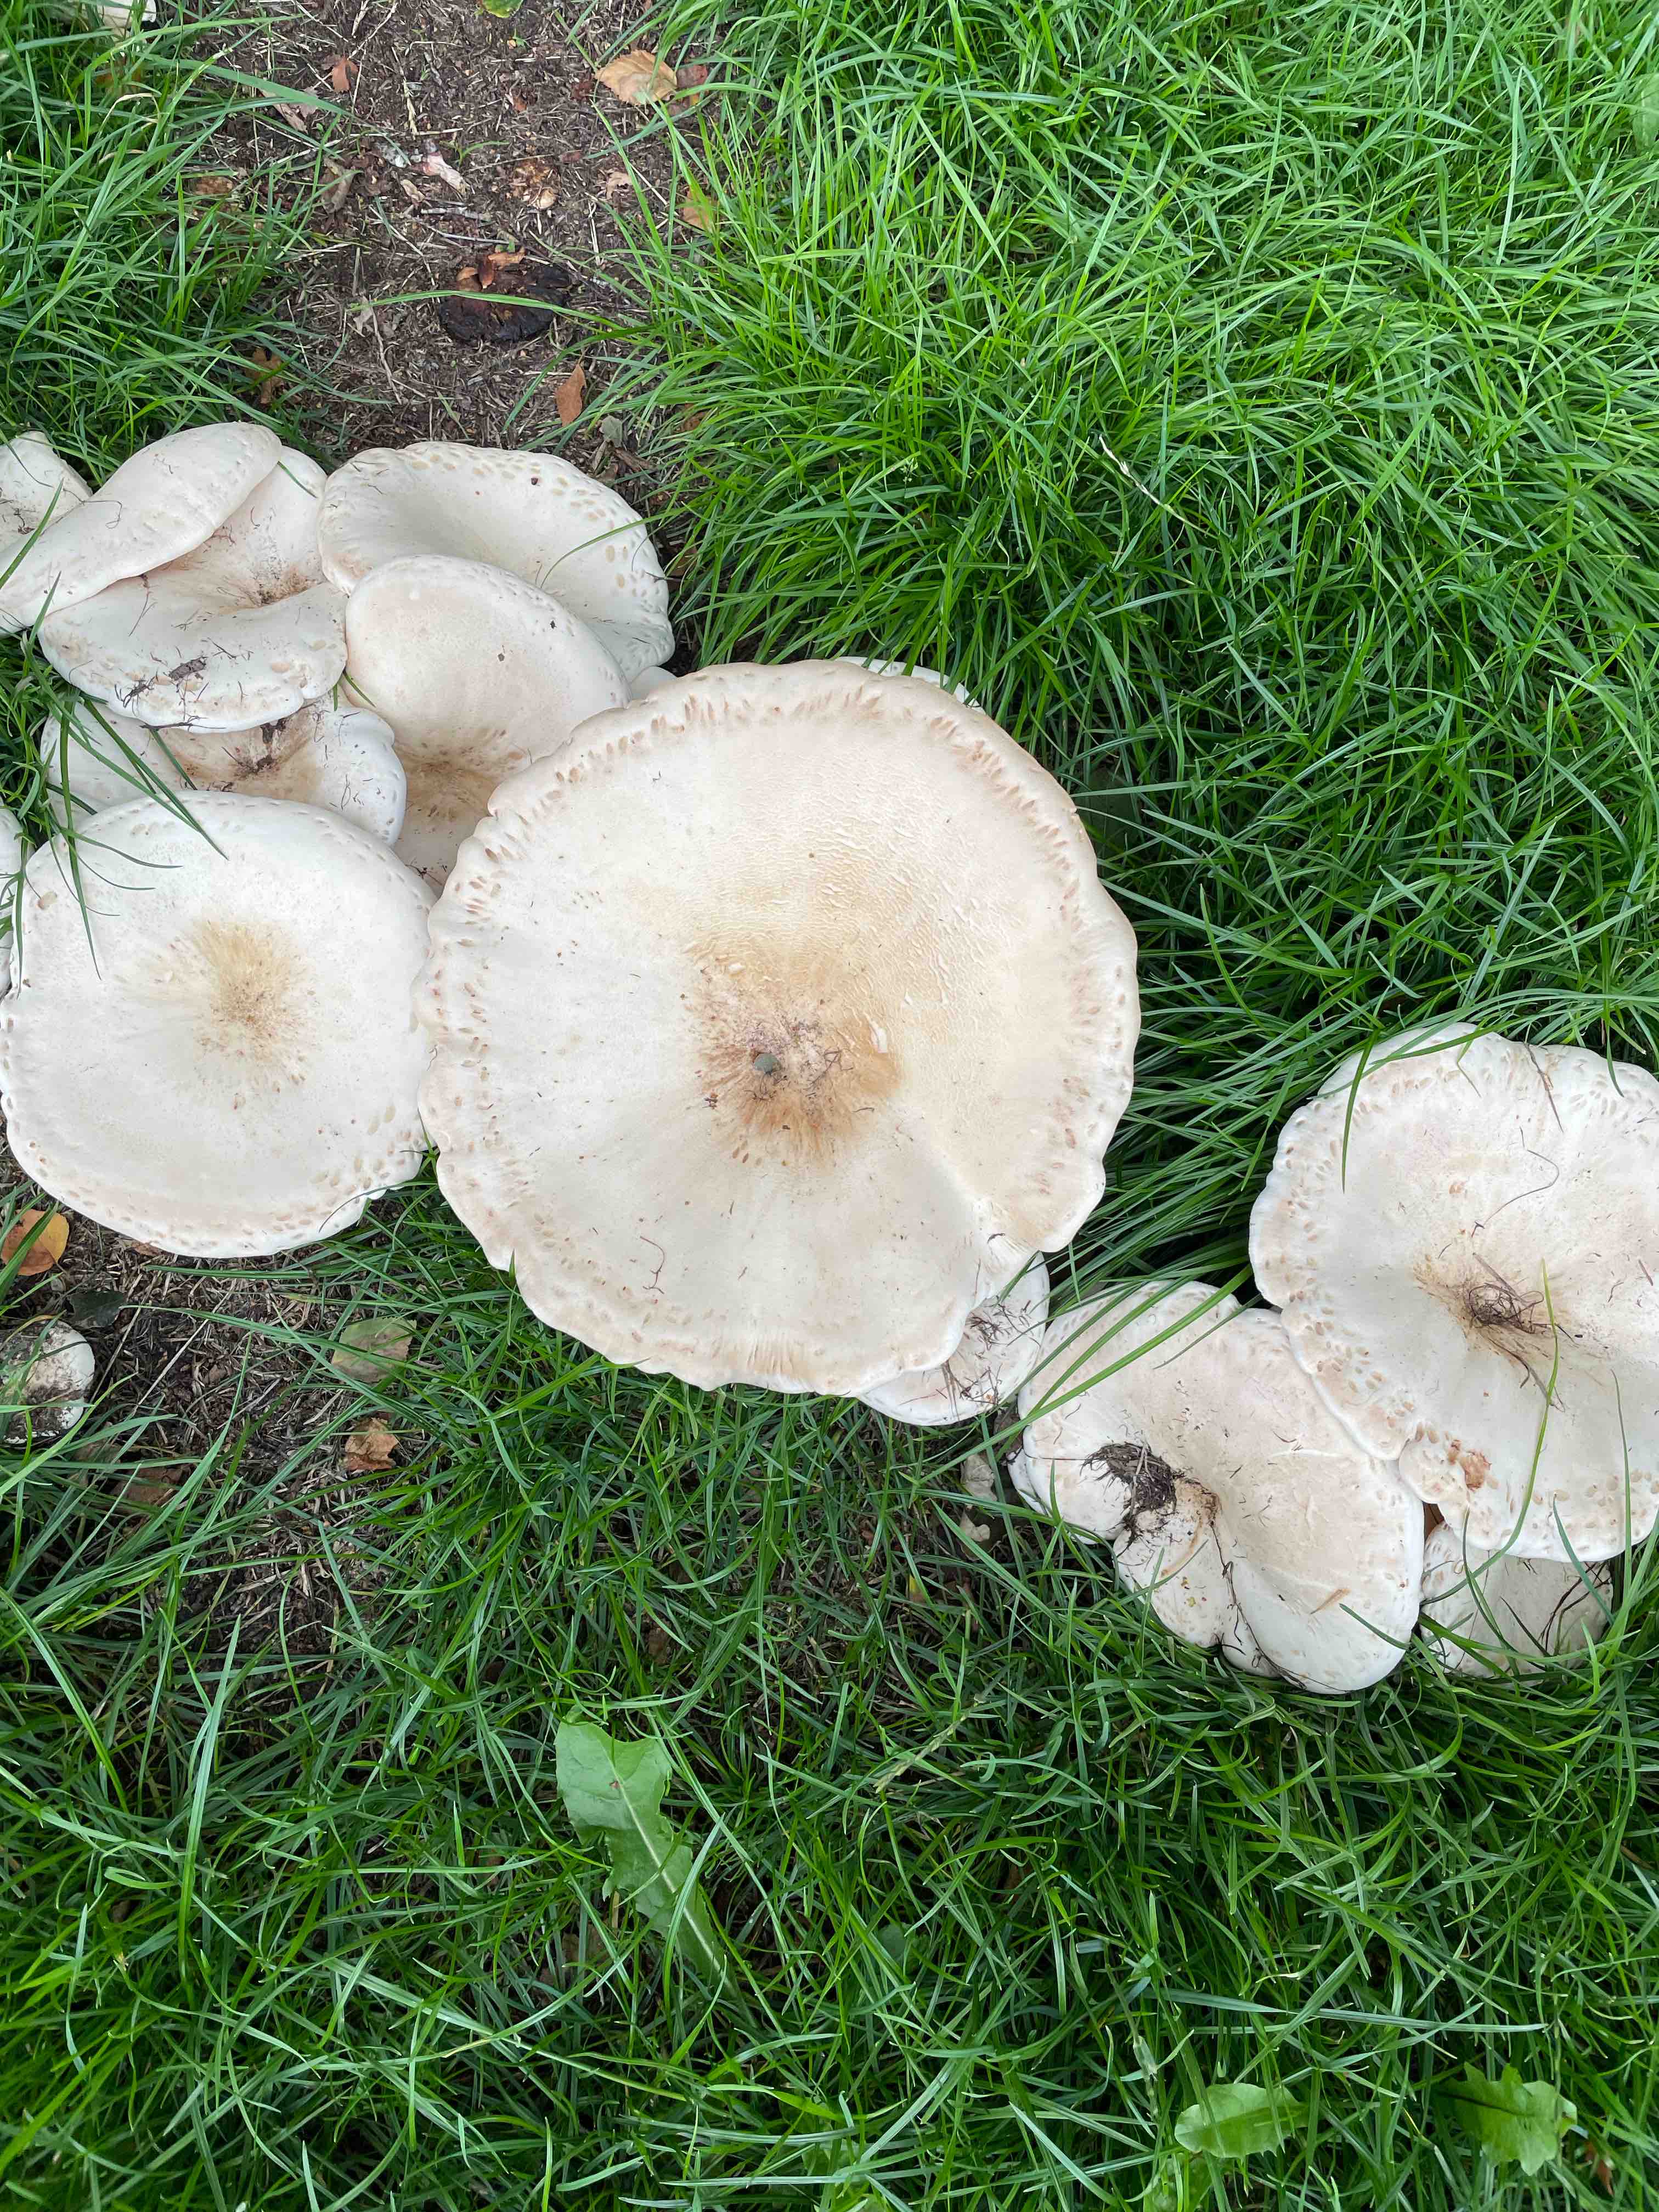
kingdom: Fungi
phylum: Basidiomycota
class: Agaricomycetes
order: Agaricales
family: Tricholomataceae
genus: Aspropaxillus
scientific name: Aspropaxillus giganteus
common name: kæmpe-tragtridderhat
